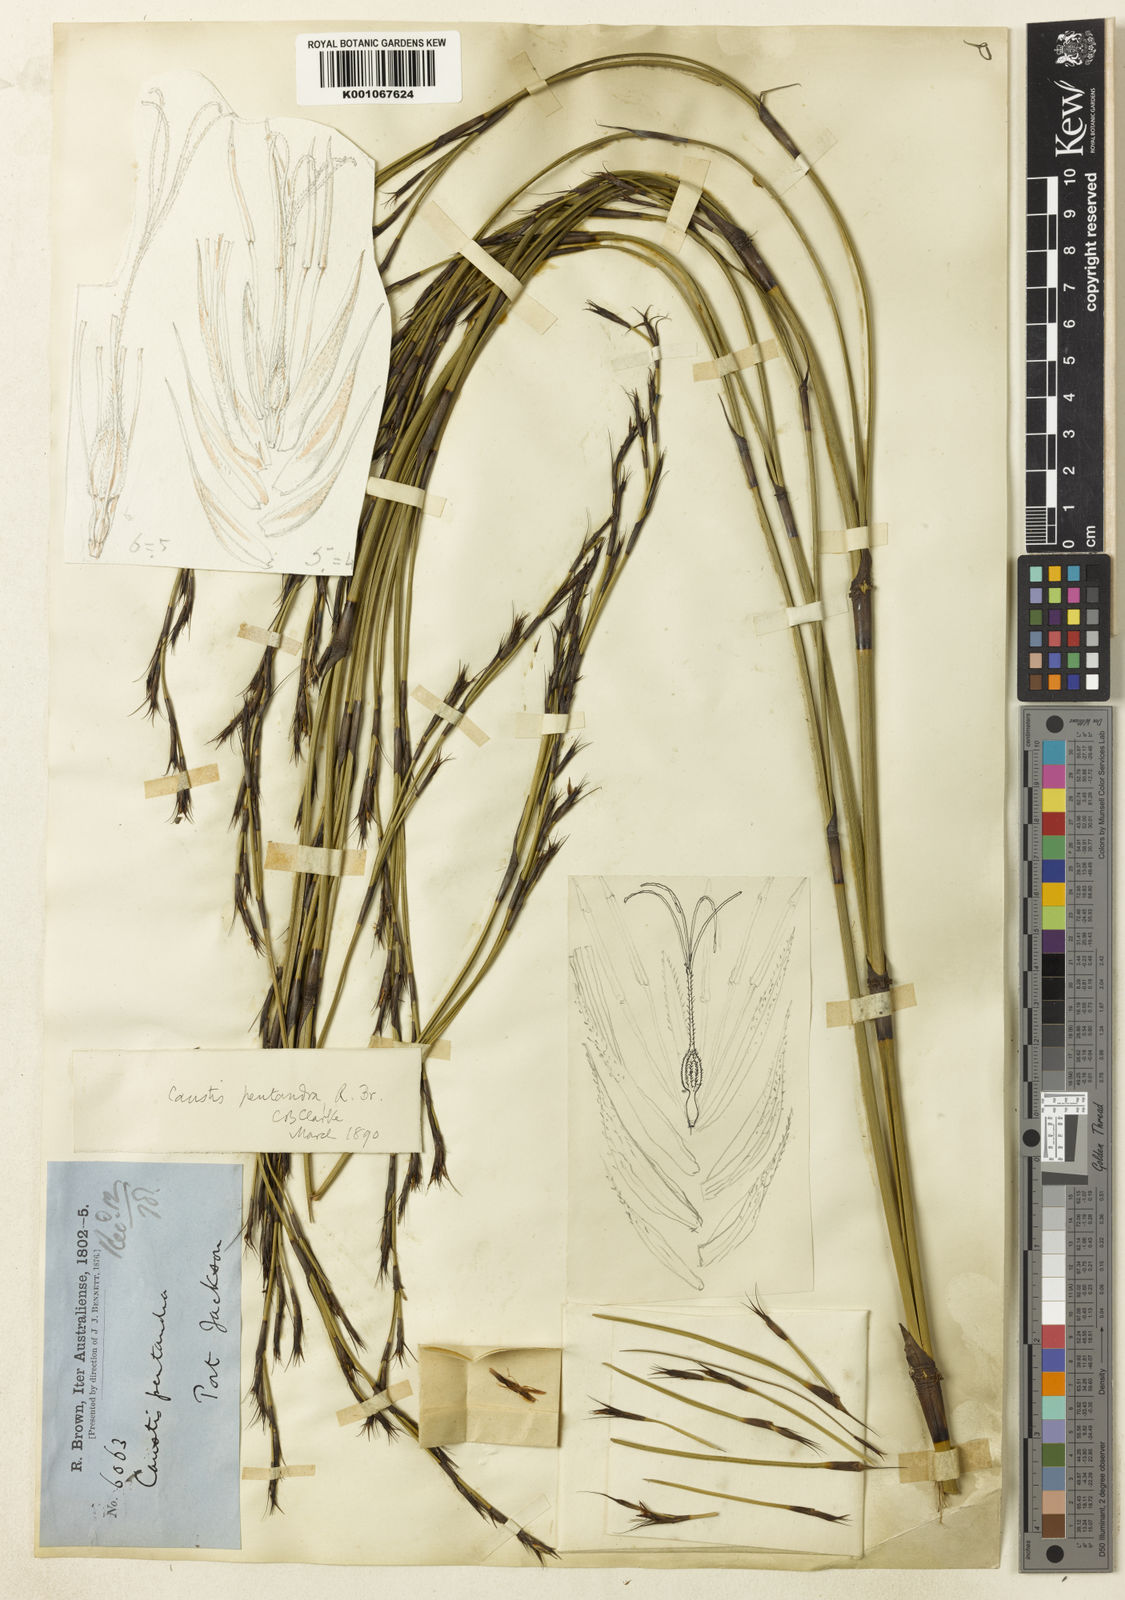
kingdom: Plantae
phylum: Tracheophyta
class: Liliopsida
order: Poales
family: Cyperaceae
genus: Caustis
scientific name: Caustis pentandra
